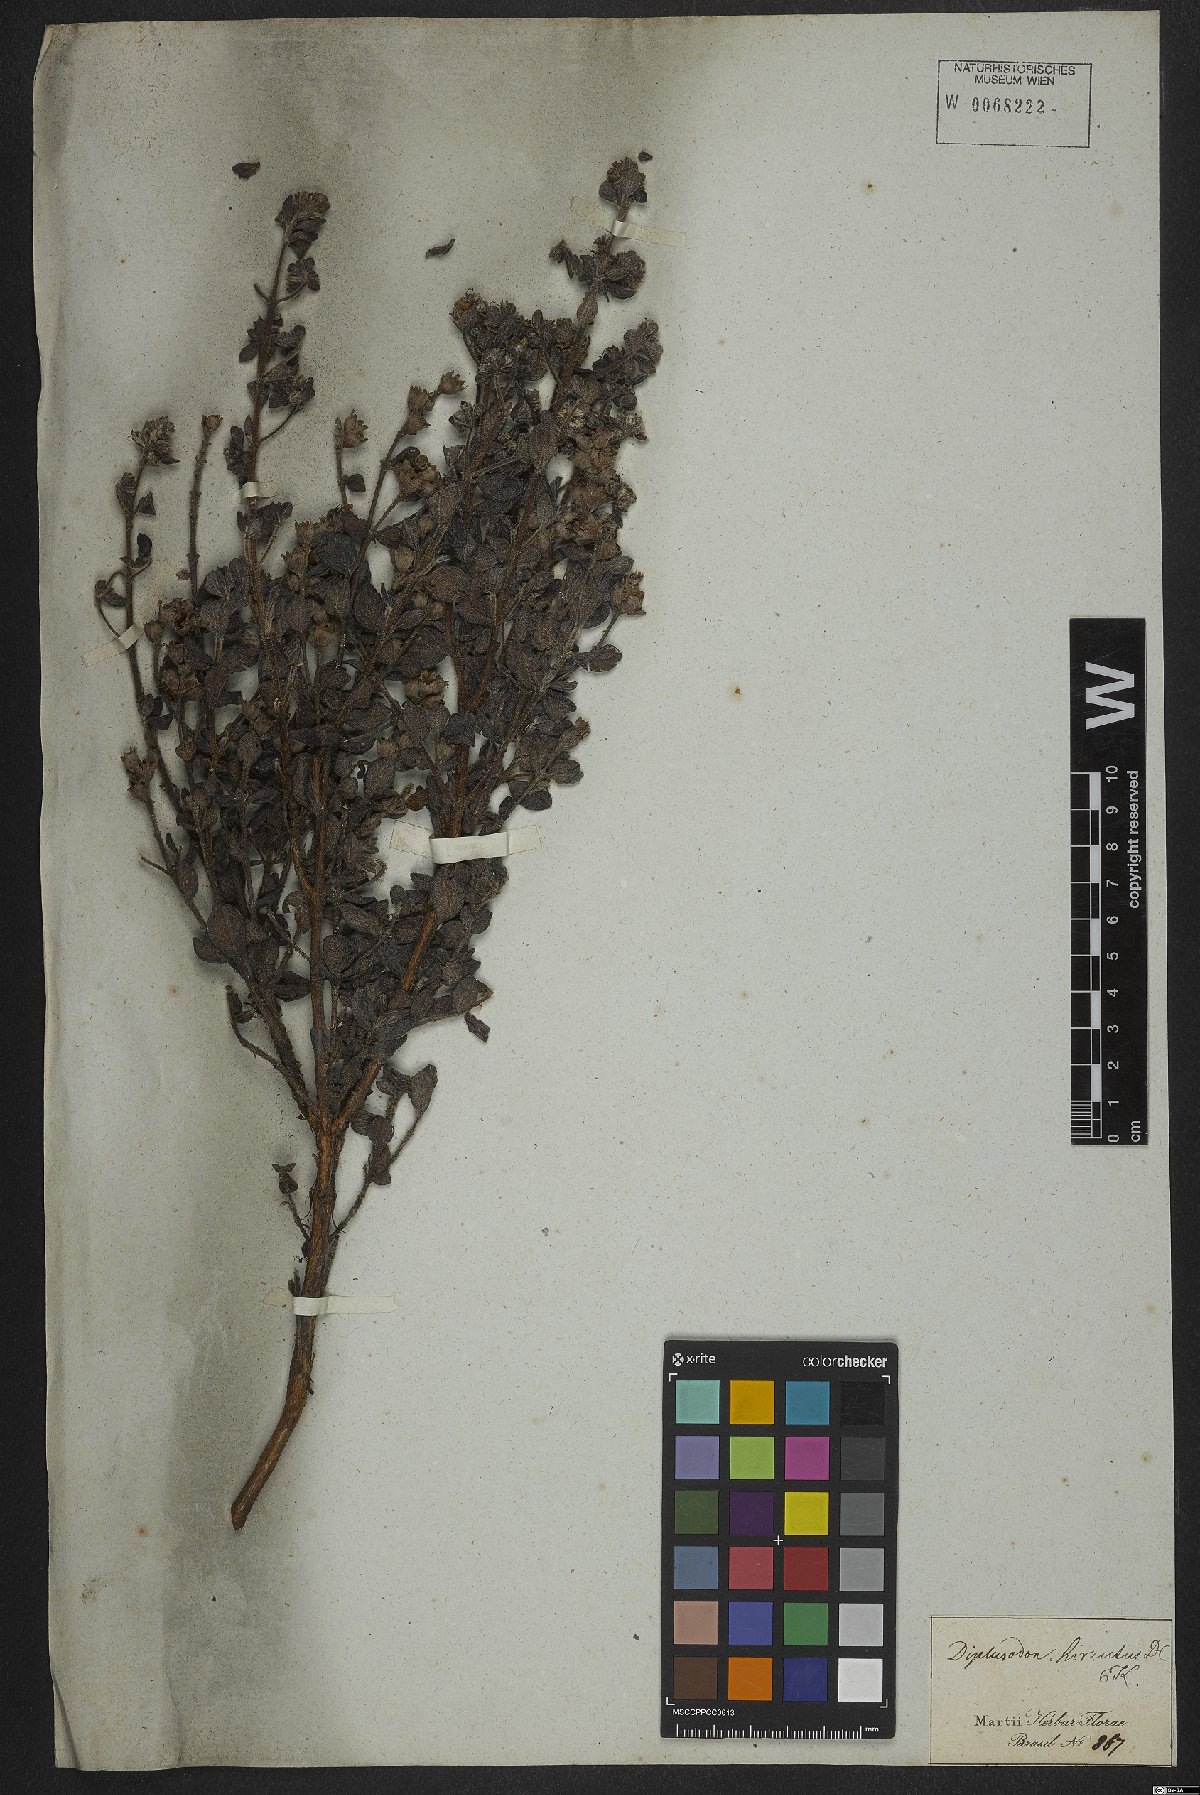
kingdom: Plantae
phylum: Tracheophyta
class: Magnoliopsida
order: Myrtales
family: Lythraceae
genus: Cuphea
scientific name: Cuphea ingrata
